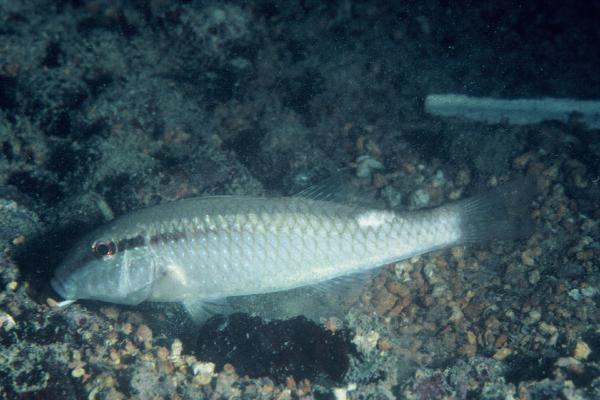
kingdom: Animalia
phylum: Chordata
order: Perciformes
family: Mullidae
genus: Parupeneus
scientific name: Parupeneus margaritatus
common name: Pearly goatfish
